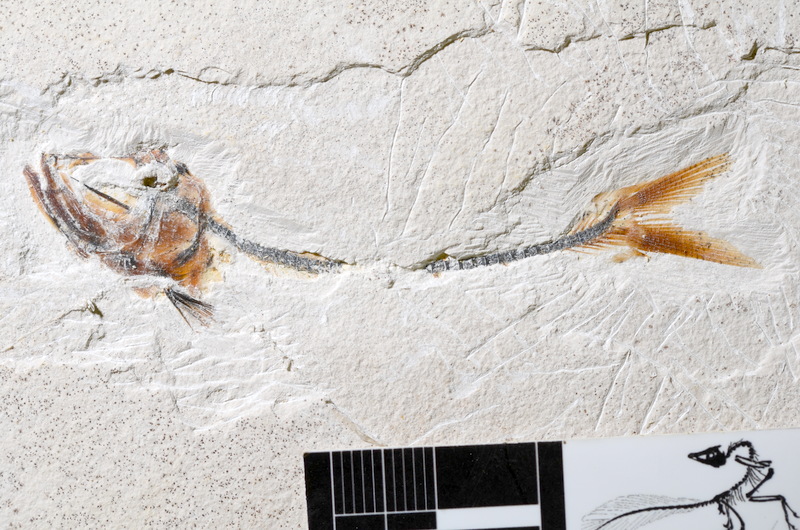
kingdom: Animalia
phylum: Chordata
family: Ascalaboidae
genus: Ebertichthys
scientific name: Ebertichthys ettlingensis
